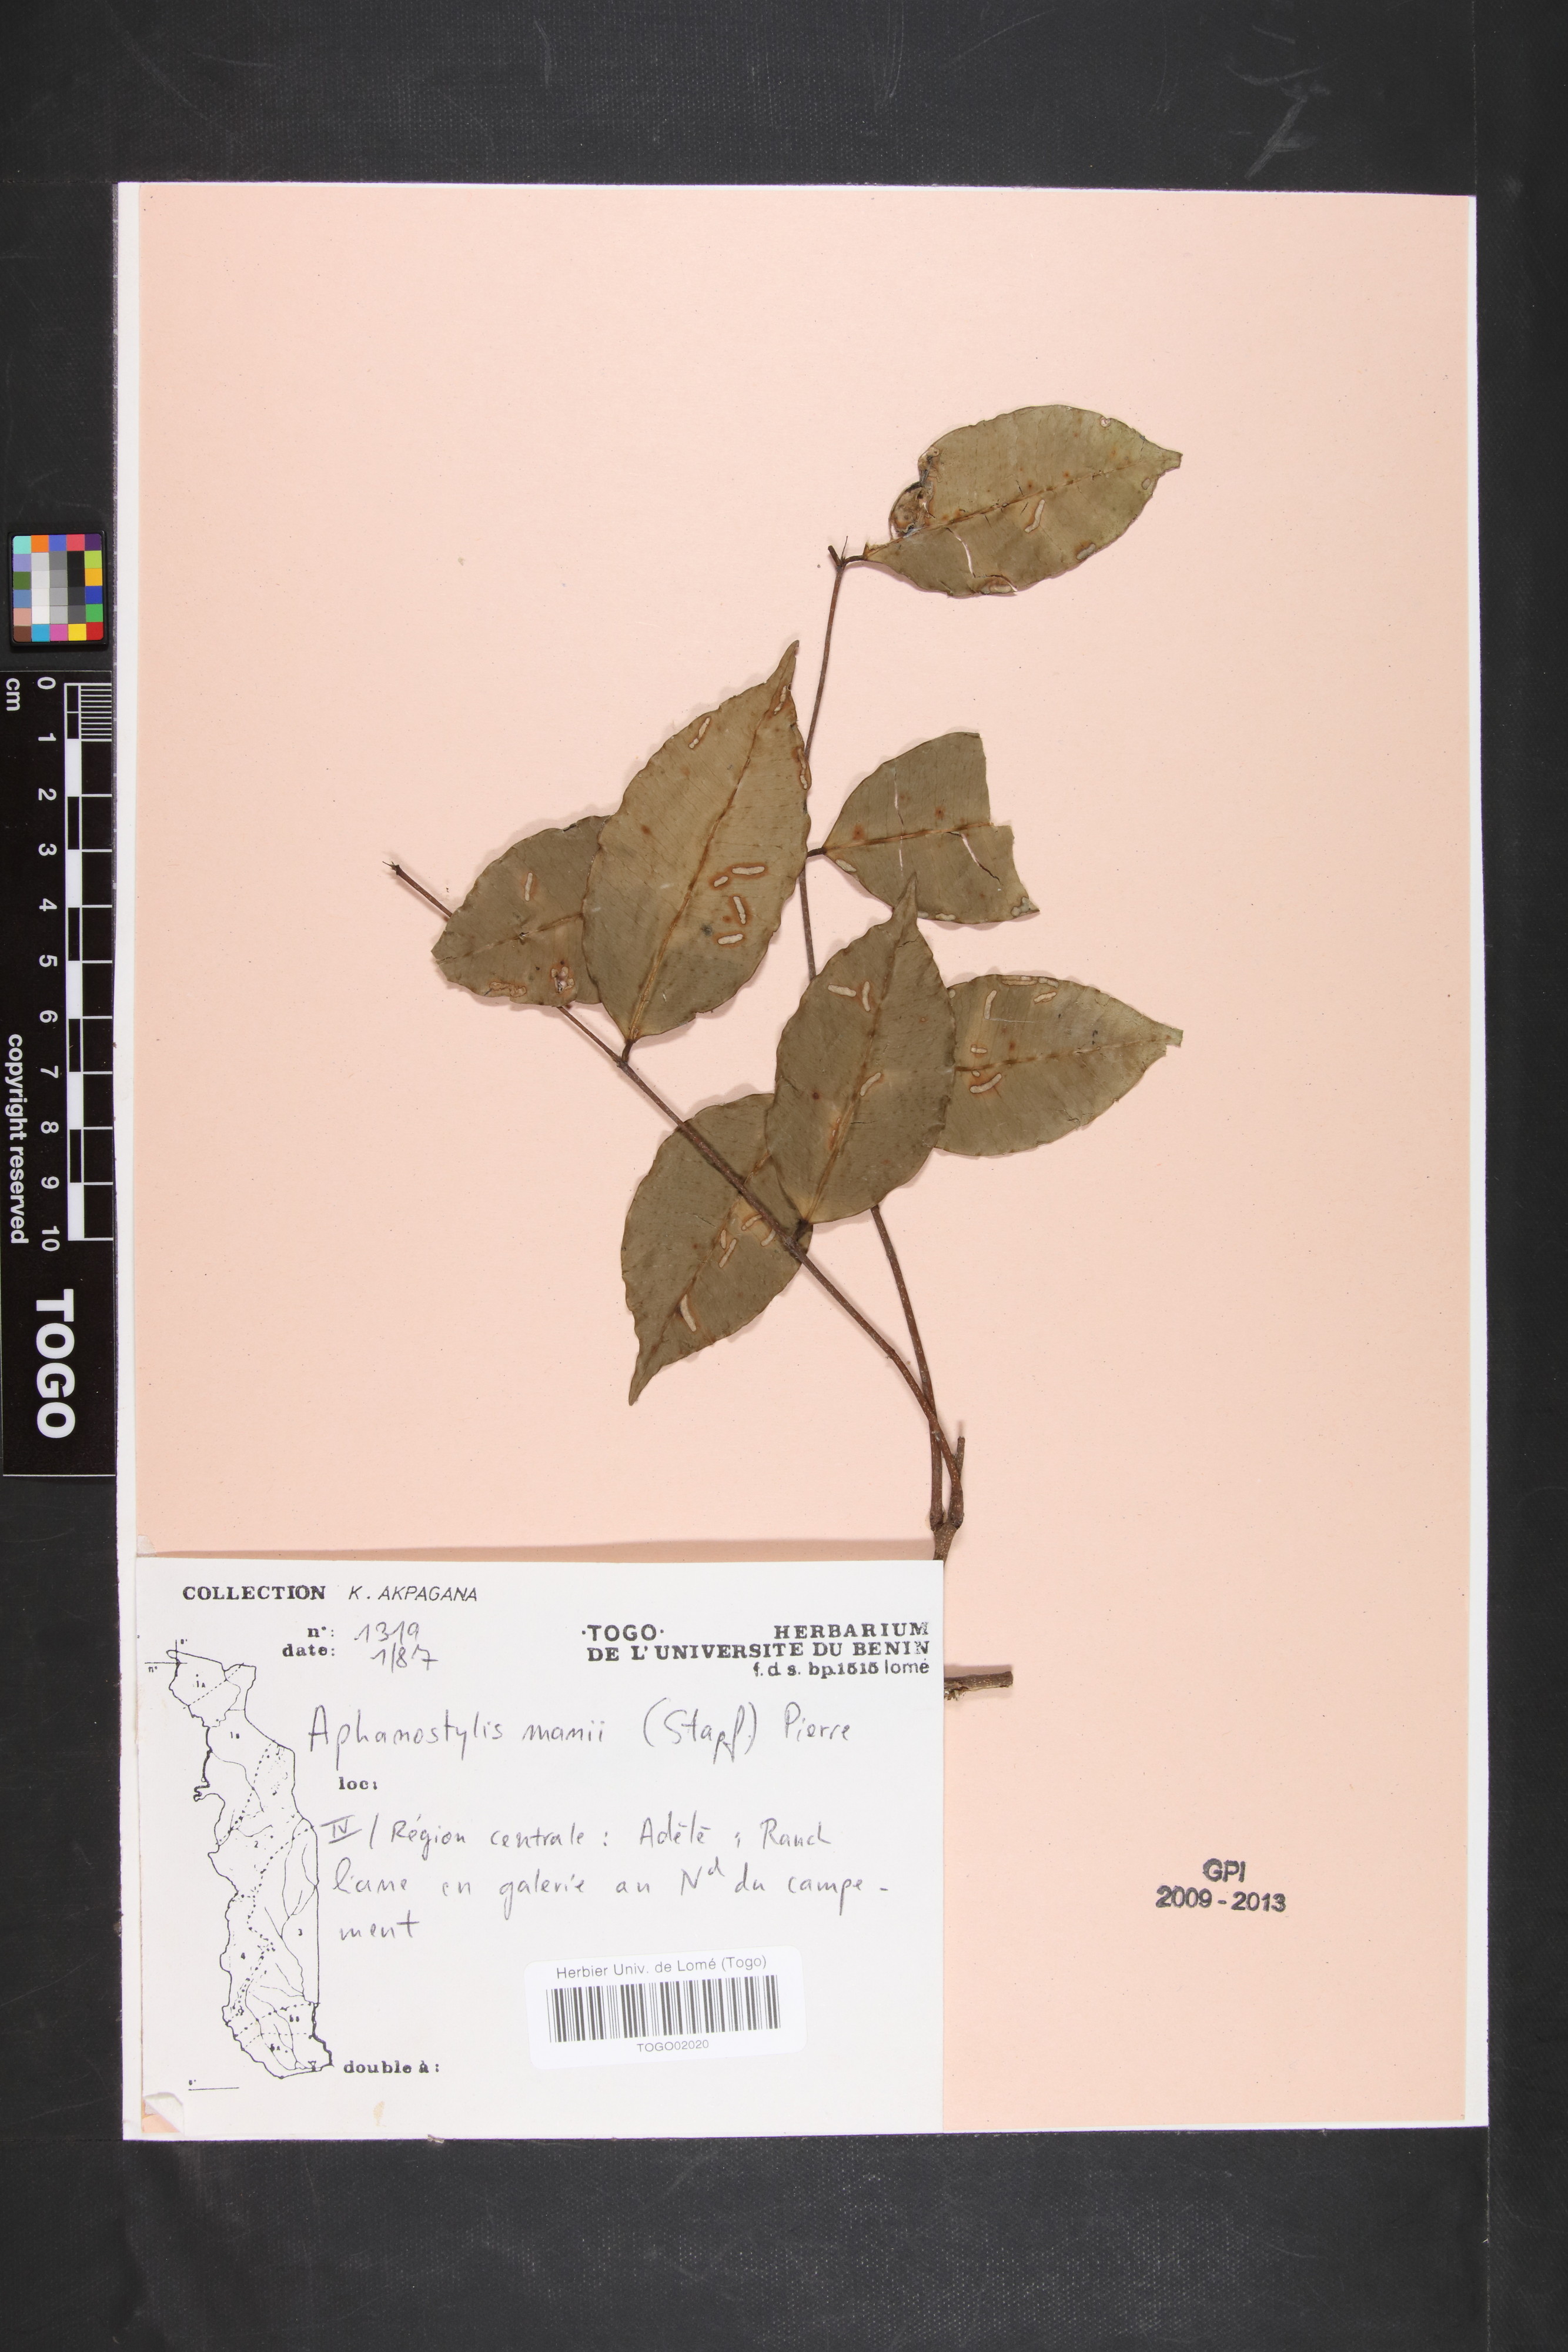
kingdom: Plantae
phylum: Tracheophyta
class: Magnoliopsida
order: Gentianales
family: Apocynaceae
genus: Landolphia
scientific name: Landolphia incerta
